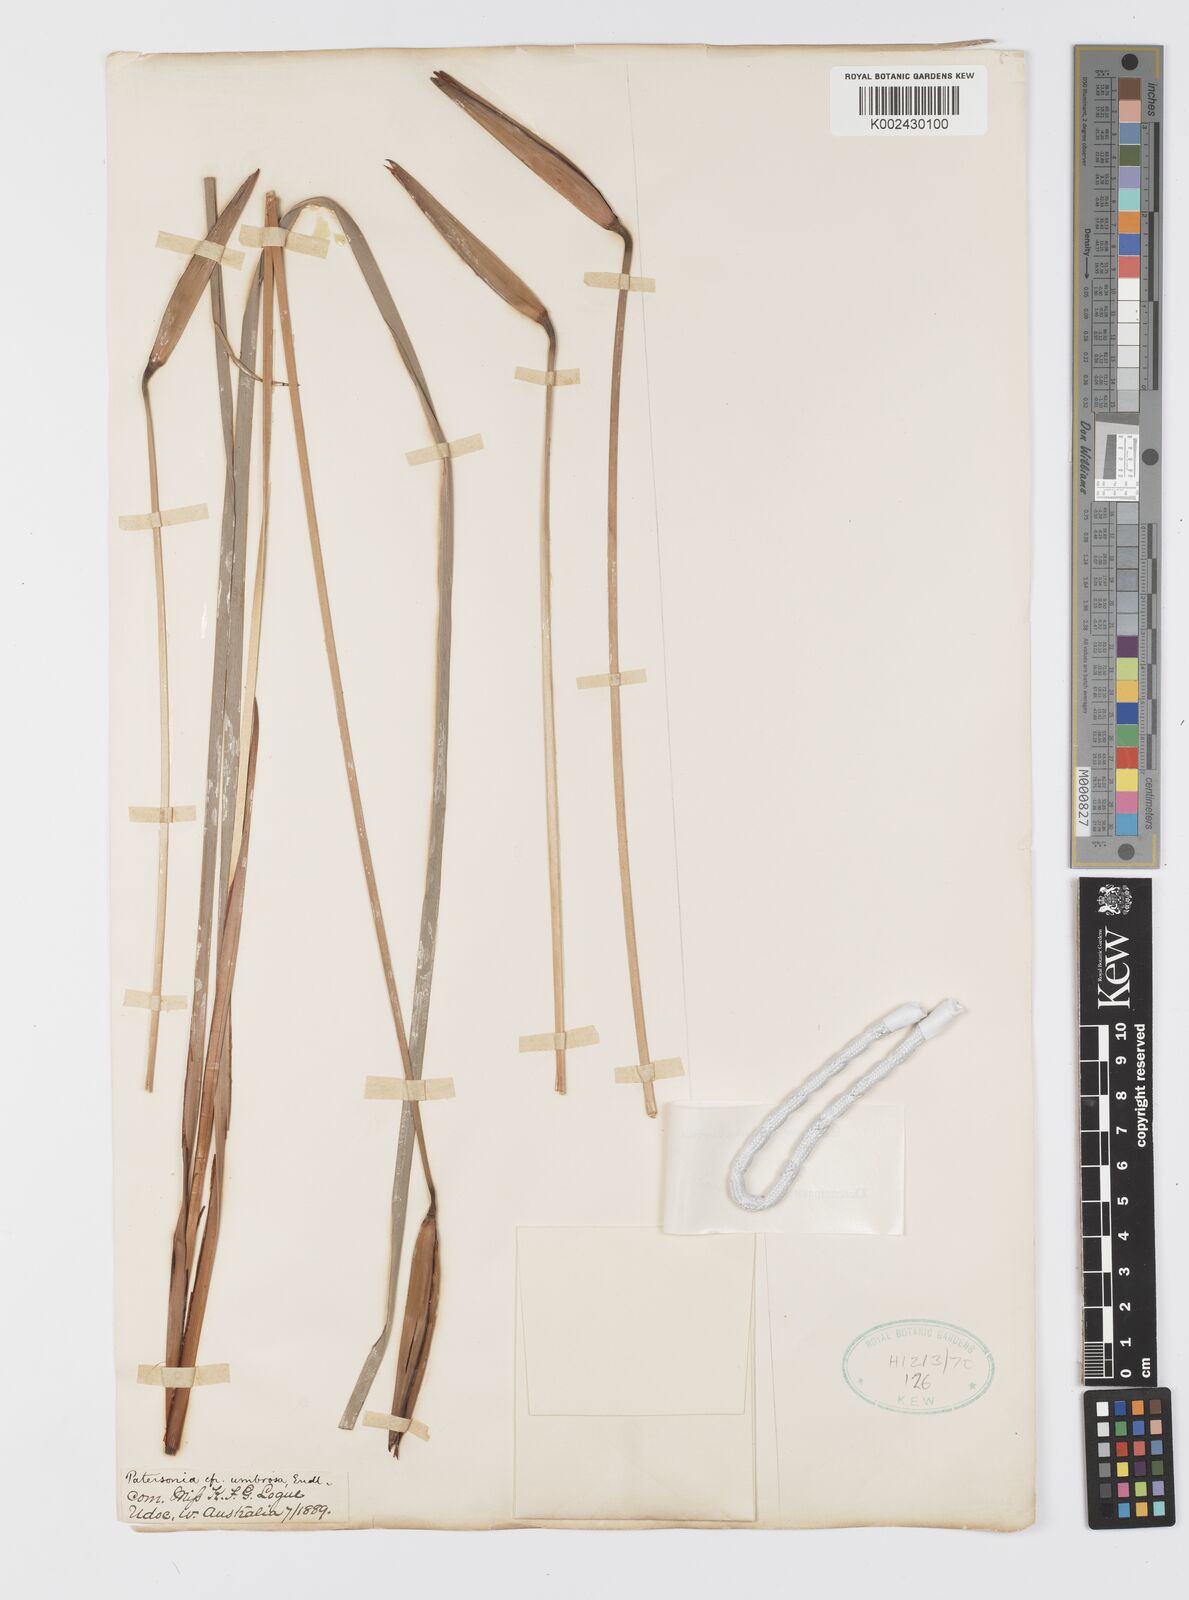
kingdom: Plantae
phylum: Tracheophyta
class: Liliopsida
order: Asparagales
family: Iridaceae
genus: Patersonia
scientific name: Patersonia umbrosa
